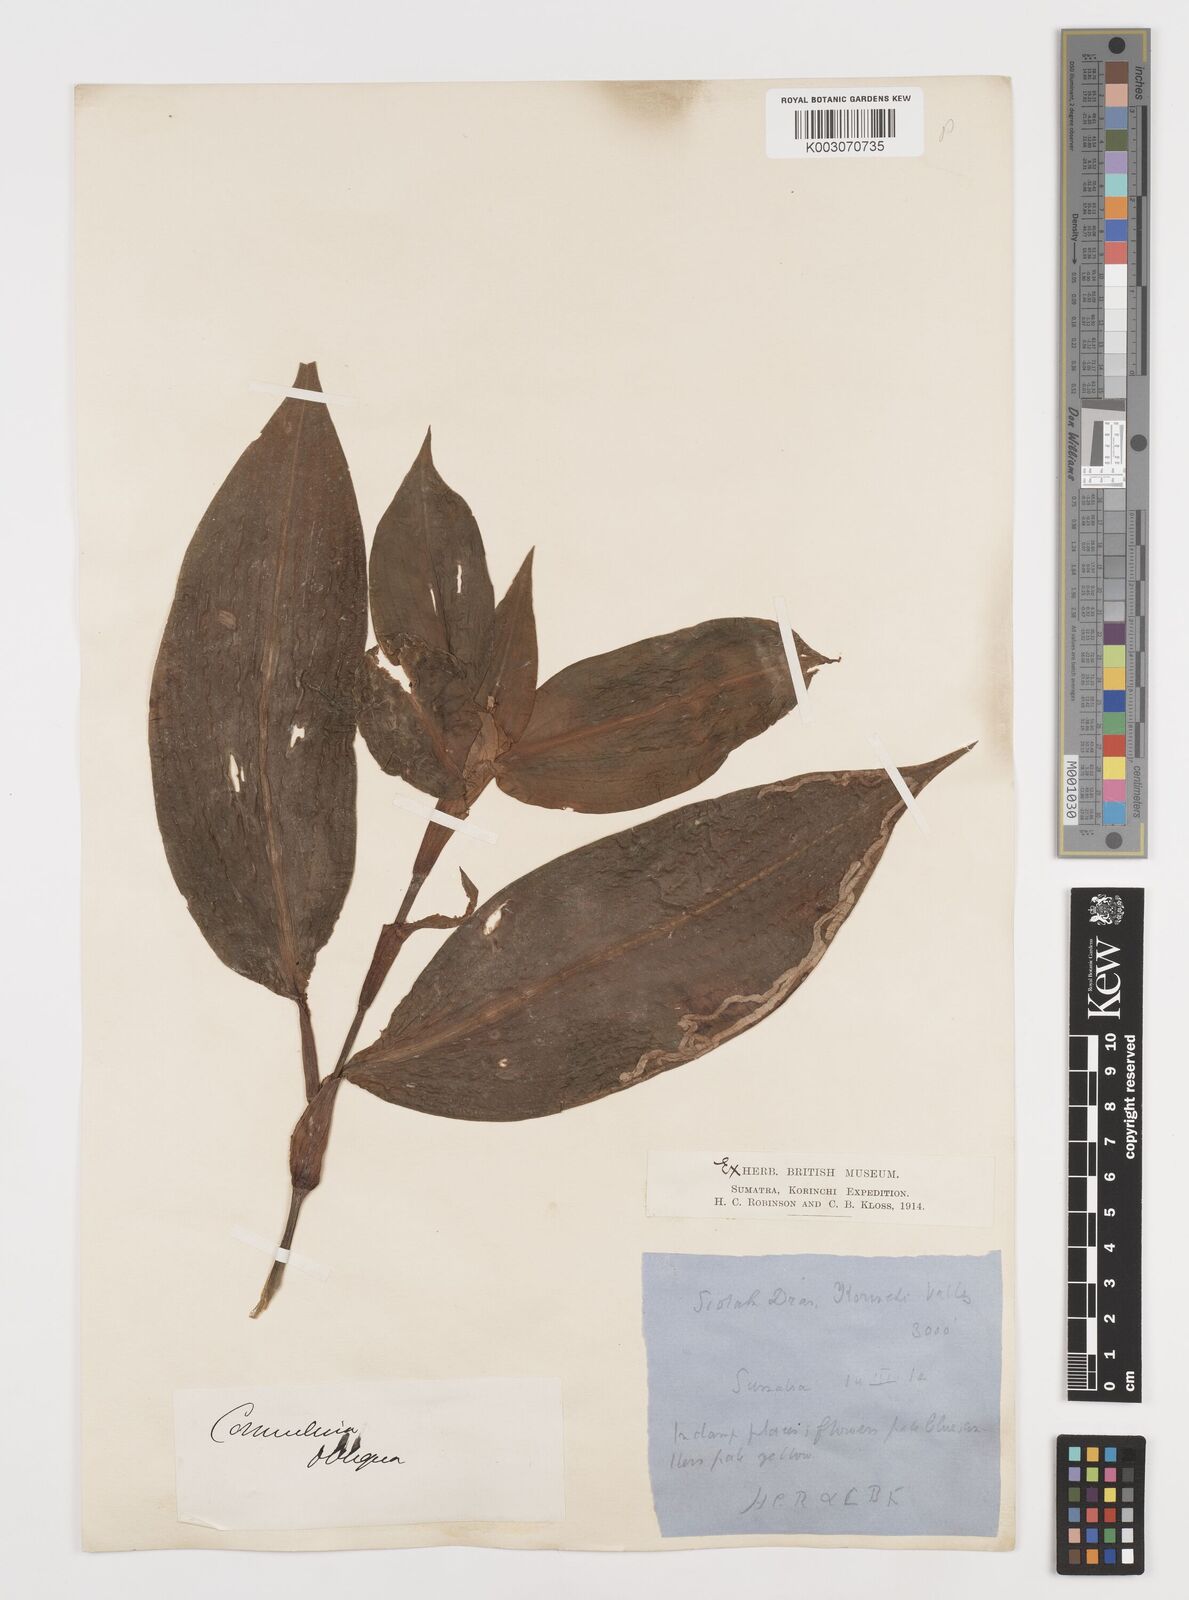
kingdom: Plantae
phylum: Tracheophyta
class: Liliopsida
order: Commelinales
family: Commelinaceae
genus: Commelina
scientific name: Commelina paludosa
